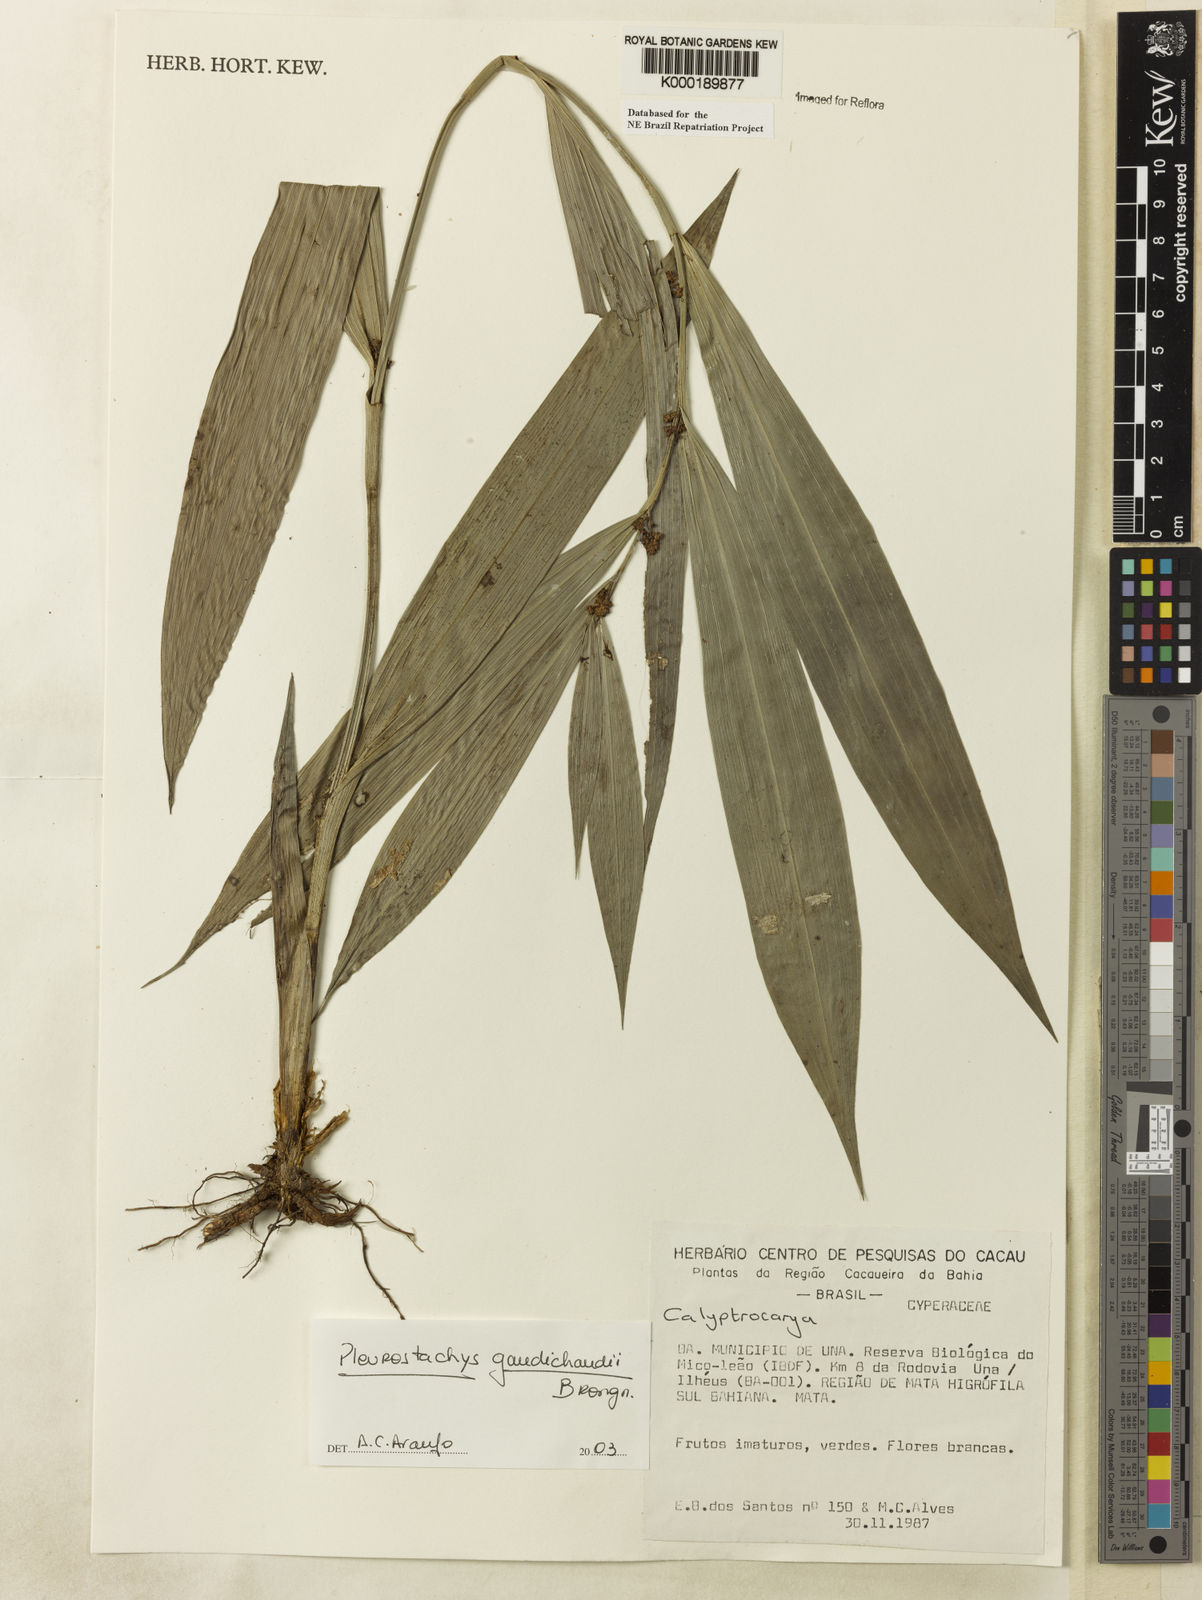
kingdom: Plantae
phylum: Tracheophyta
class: Liliopsida
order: Poales
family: Cyperaceae
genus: Rhynchospora
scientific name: Rhynchospora gaudichaudii
